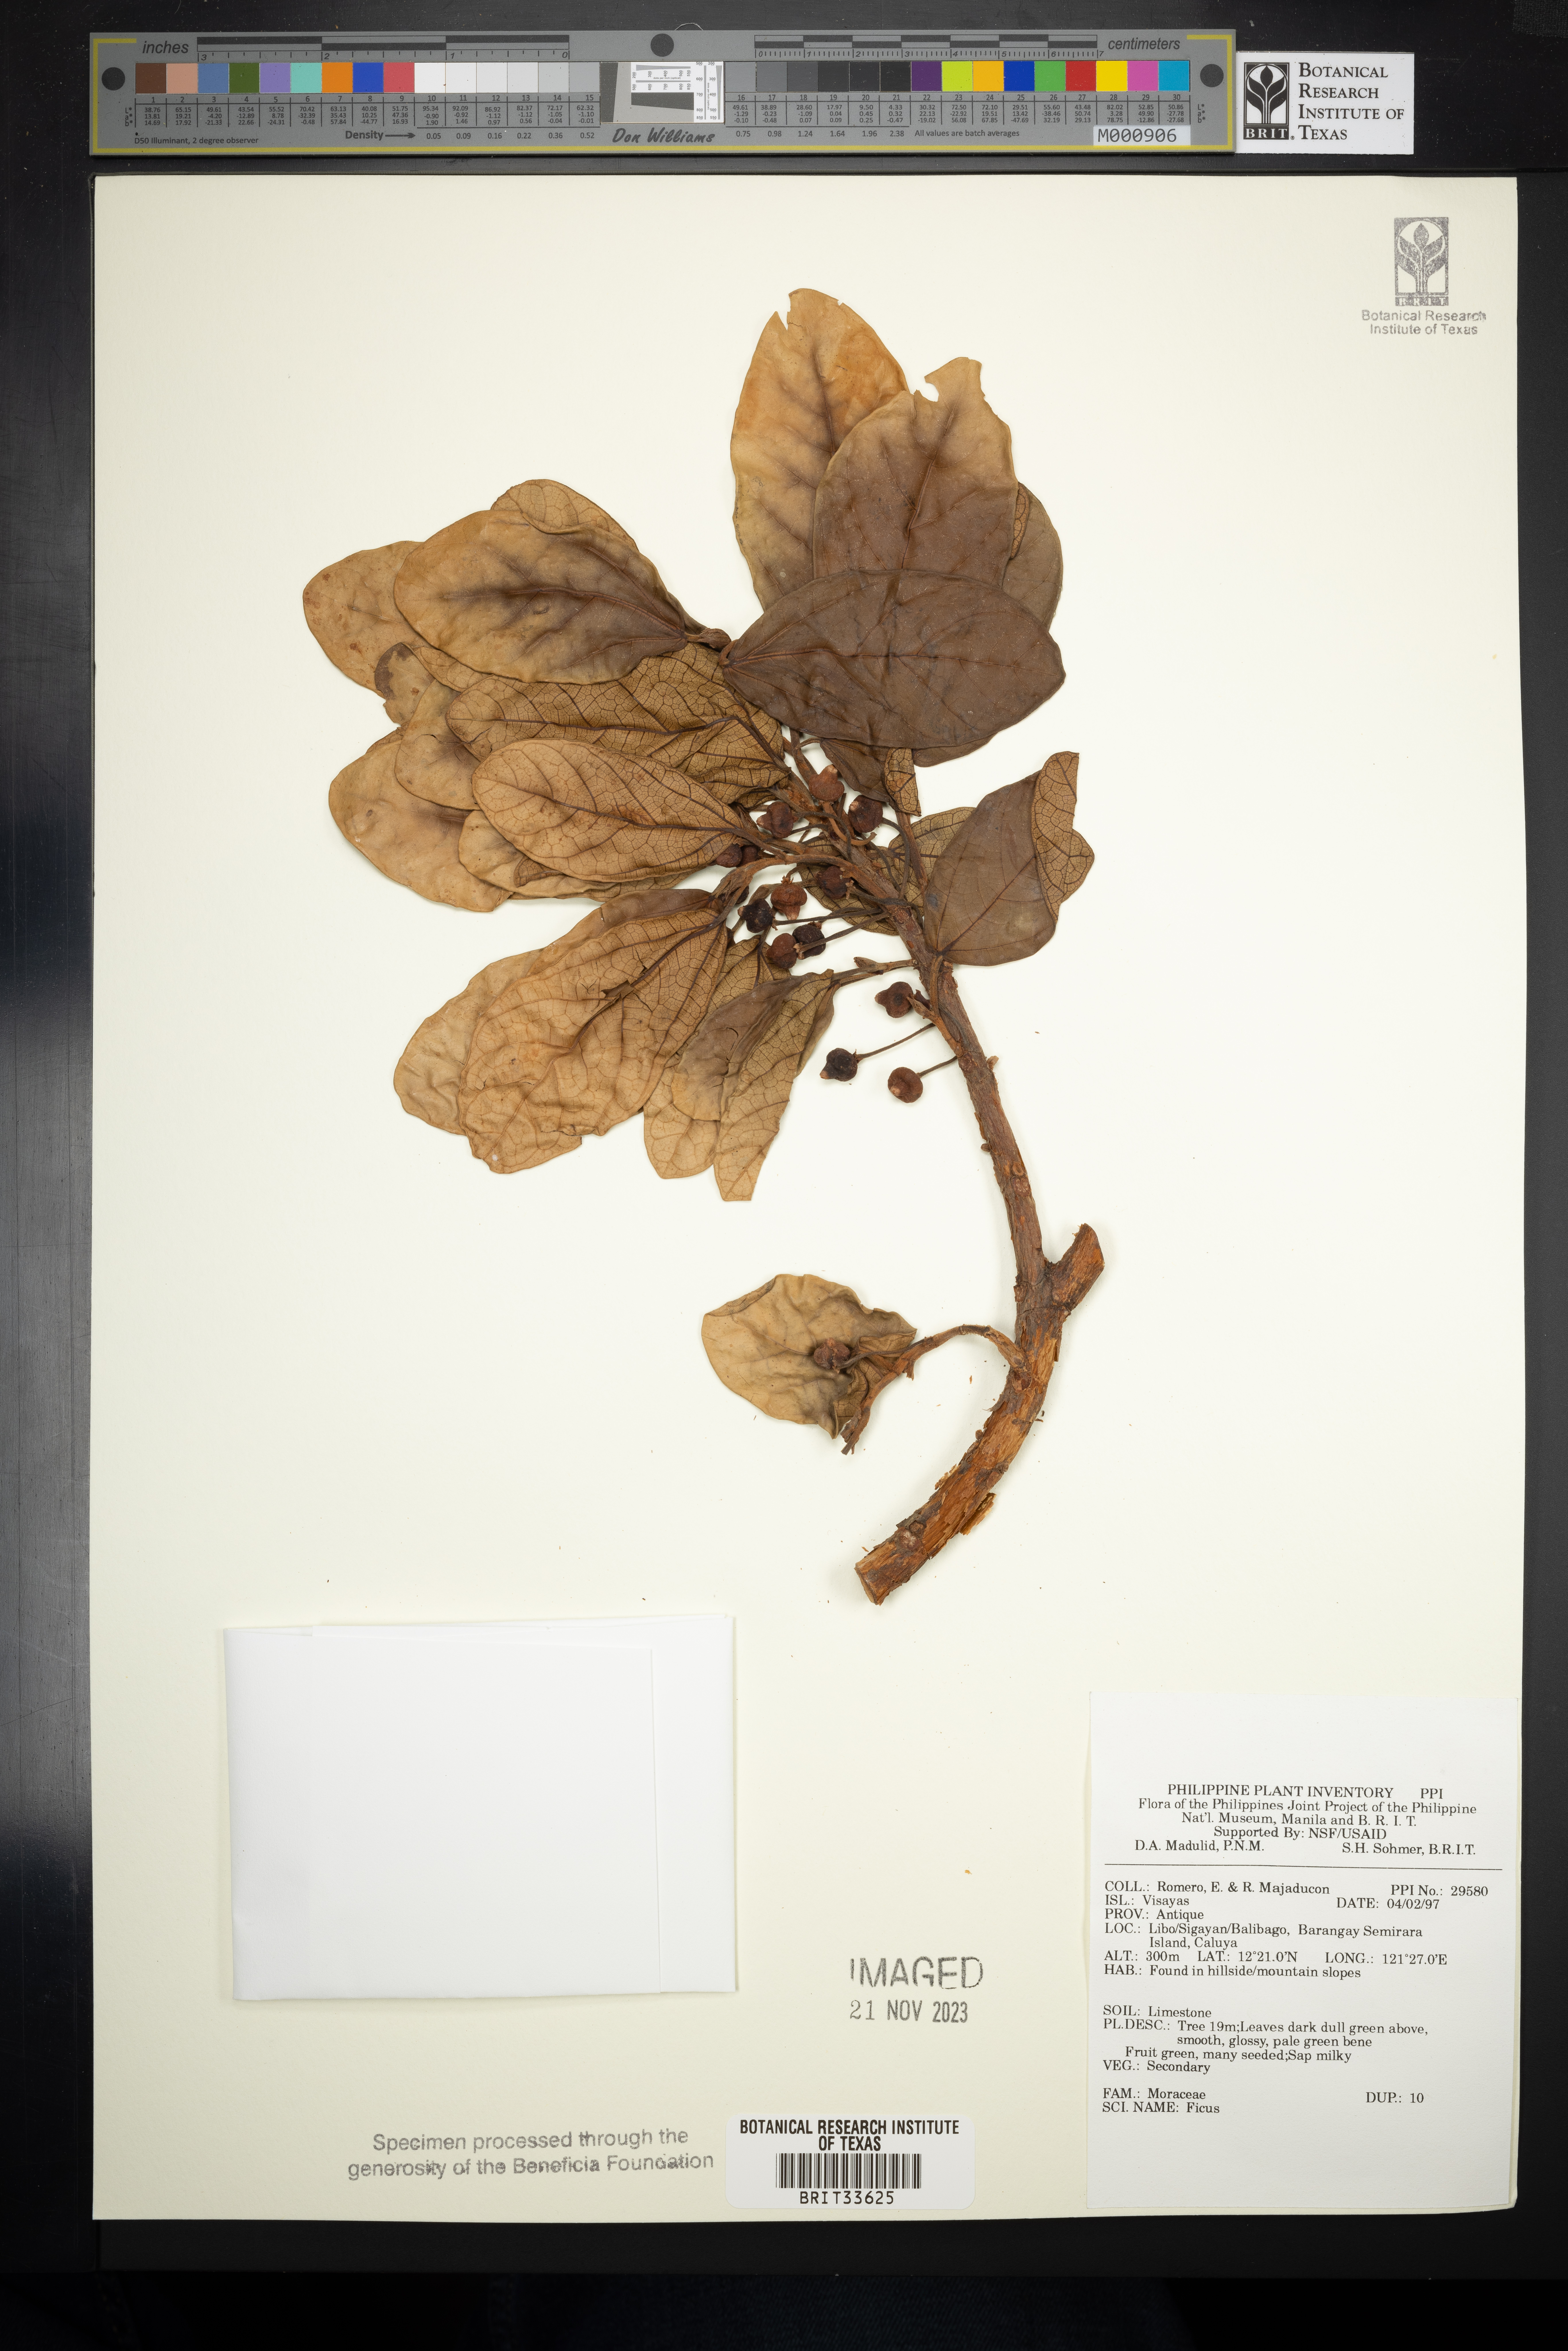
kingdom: Plantae
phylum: Tracheophyta
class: Magnoliopsida
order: Rosales
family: Moraceae
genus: Ficus
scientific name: Ficus
